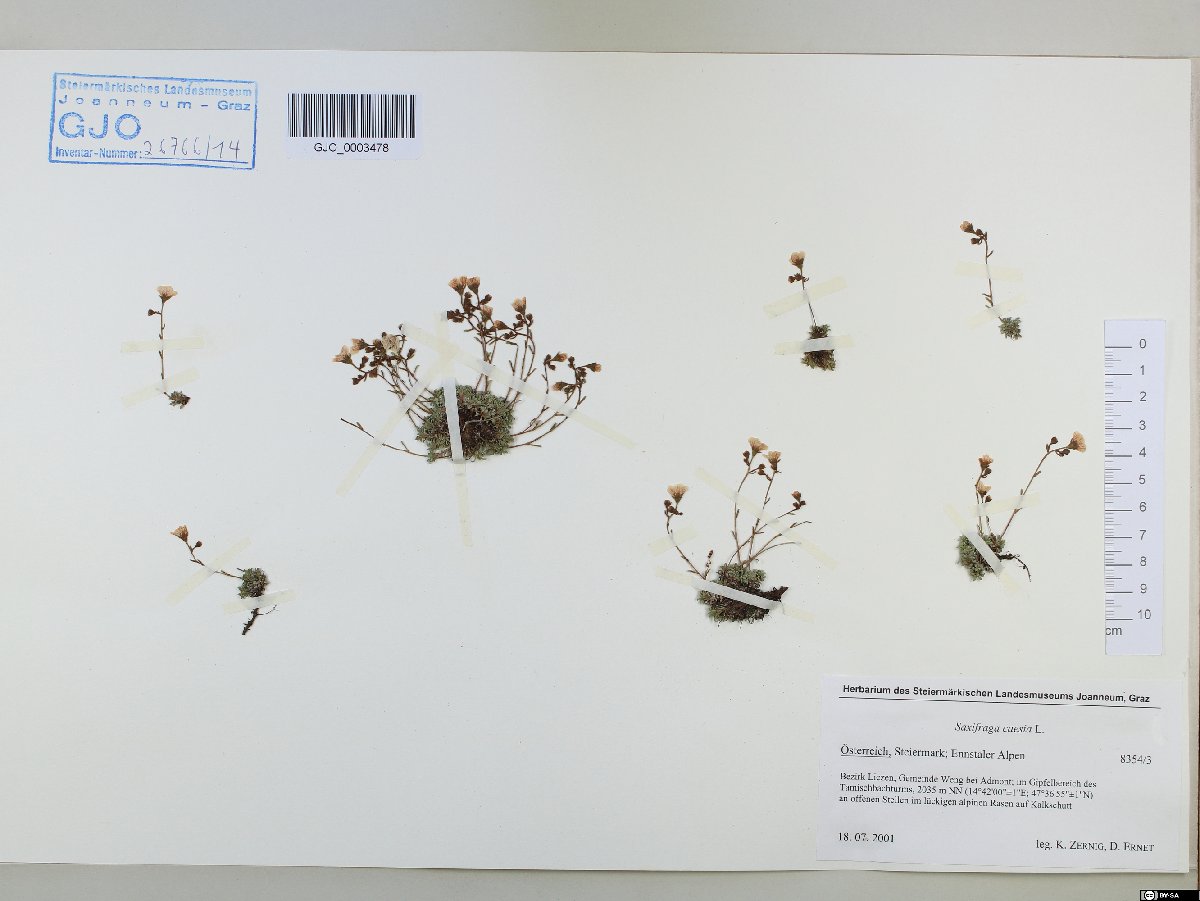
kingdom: Plantae
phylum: Tracheophyta
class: Magnoliopsida
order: Saxifragales
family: Saxifragaceae
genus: Saxifraga
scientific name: Saxifraga caesia
